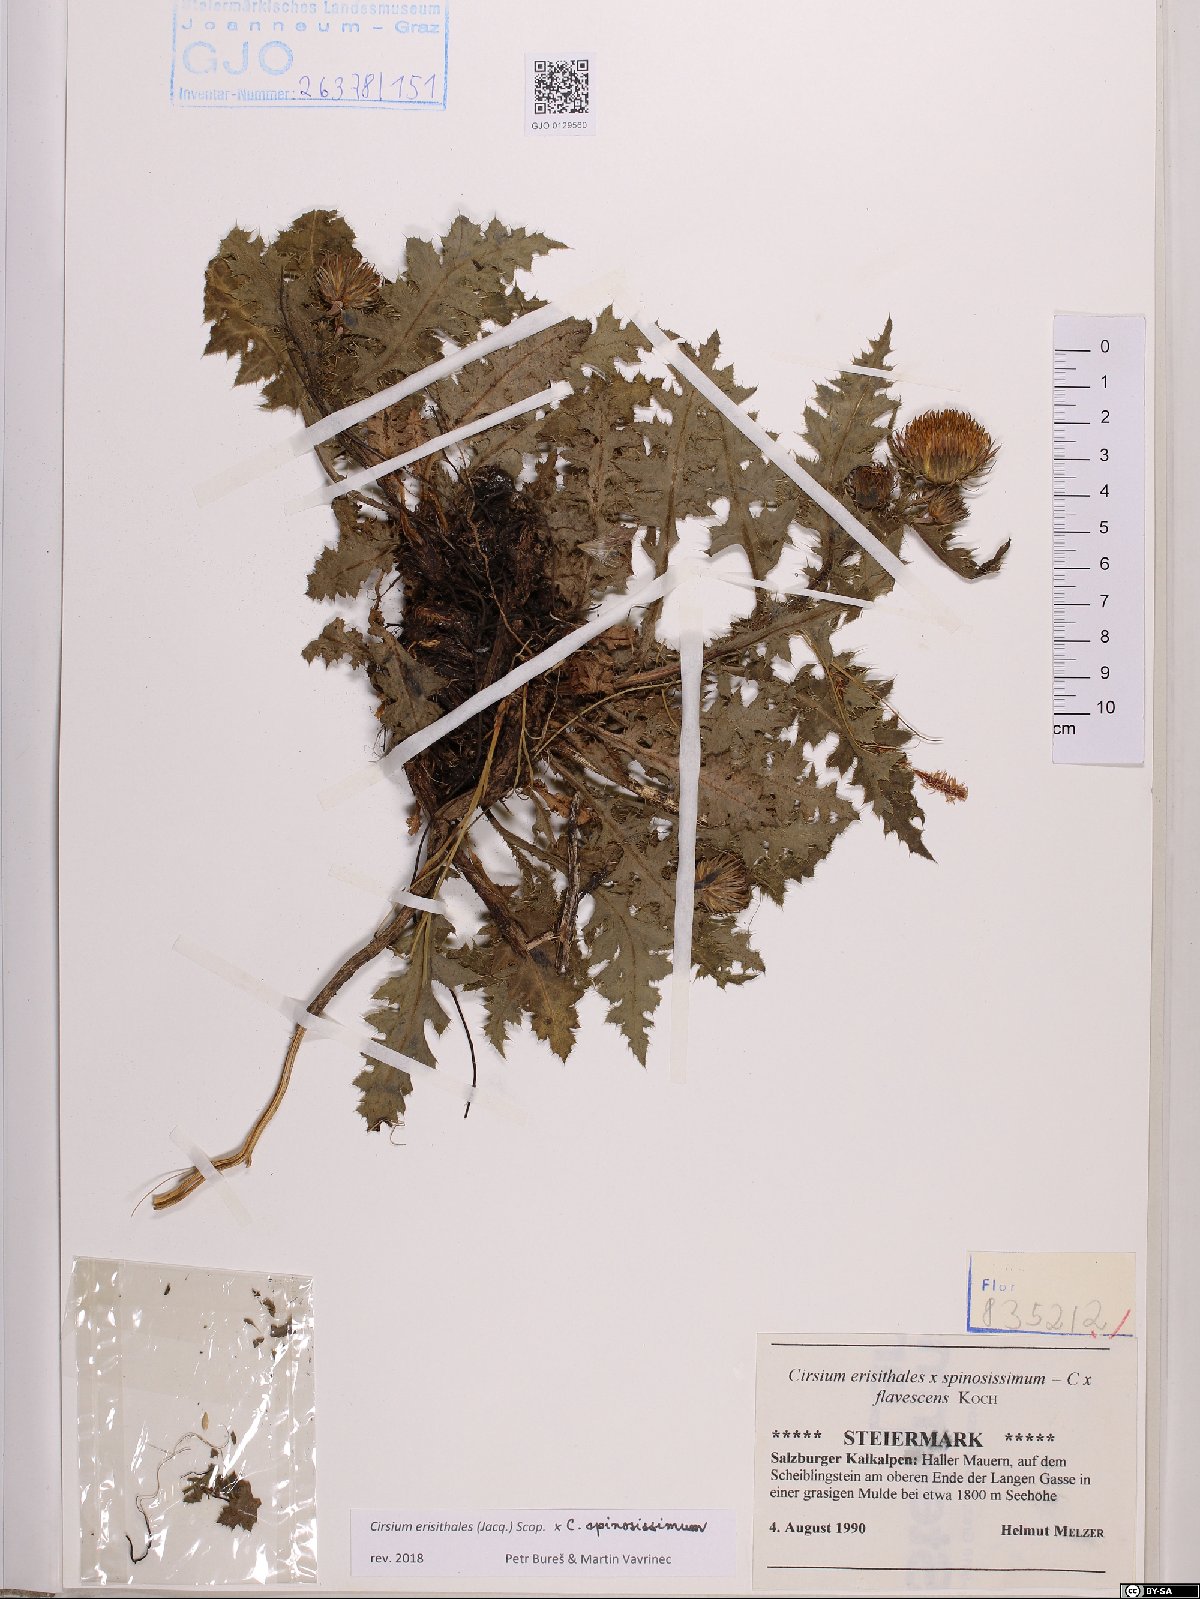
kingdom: Plantae
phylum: Tracheophyta
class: Magnoliopsida
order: Asterales
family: Asteraceae
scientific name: Asteraceae
